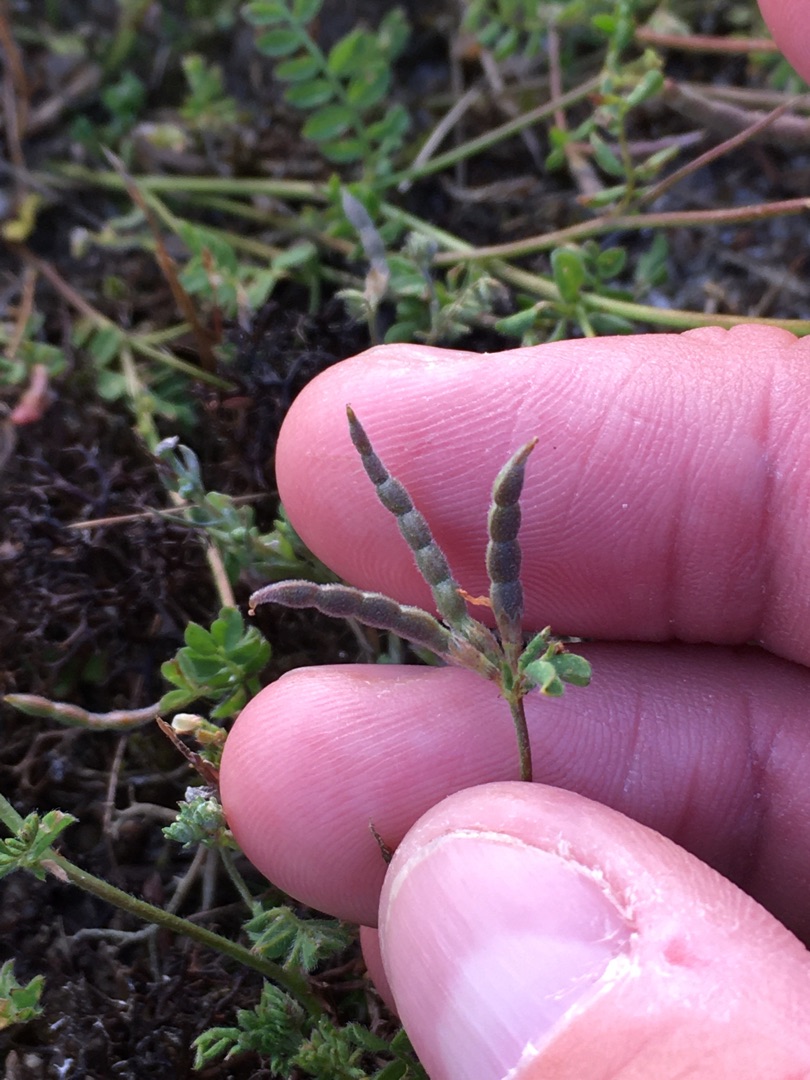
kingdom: Plantae
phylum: Tracheophyta
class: Magnoliopsida
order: Fabales
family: Fabaceae
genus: Ornithopus
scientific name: Ornithopus perpusillus
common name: Liden fugleklo
